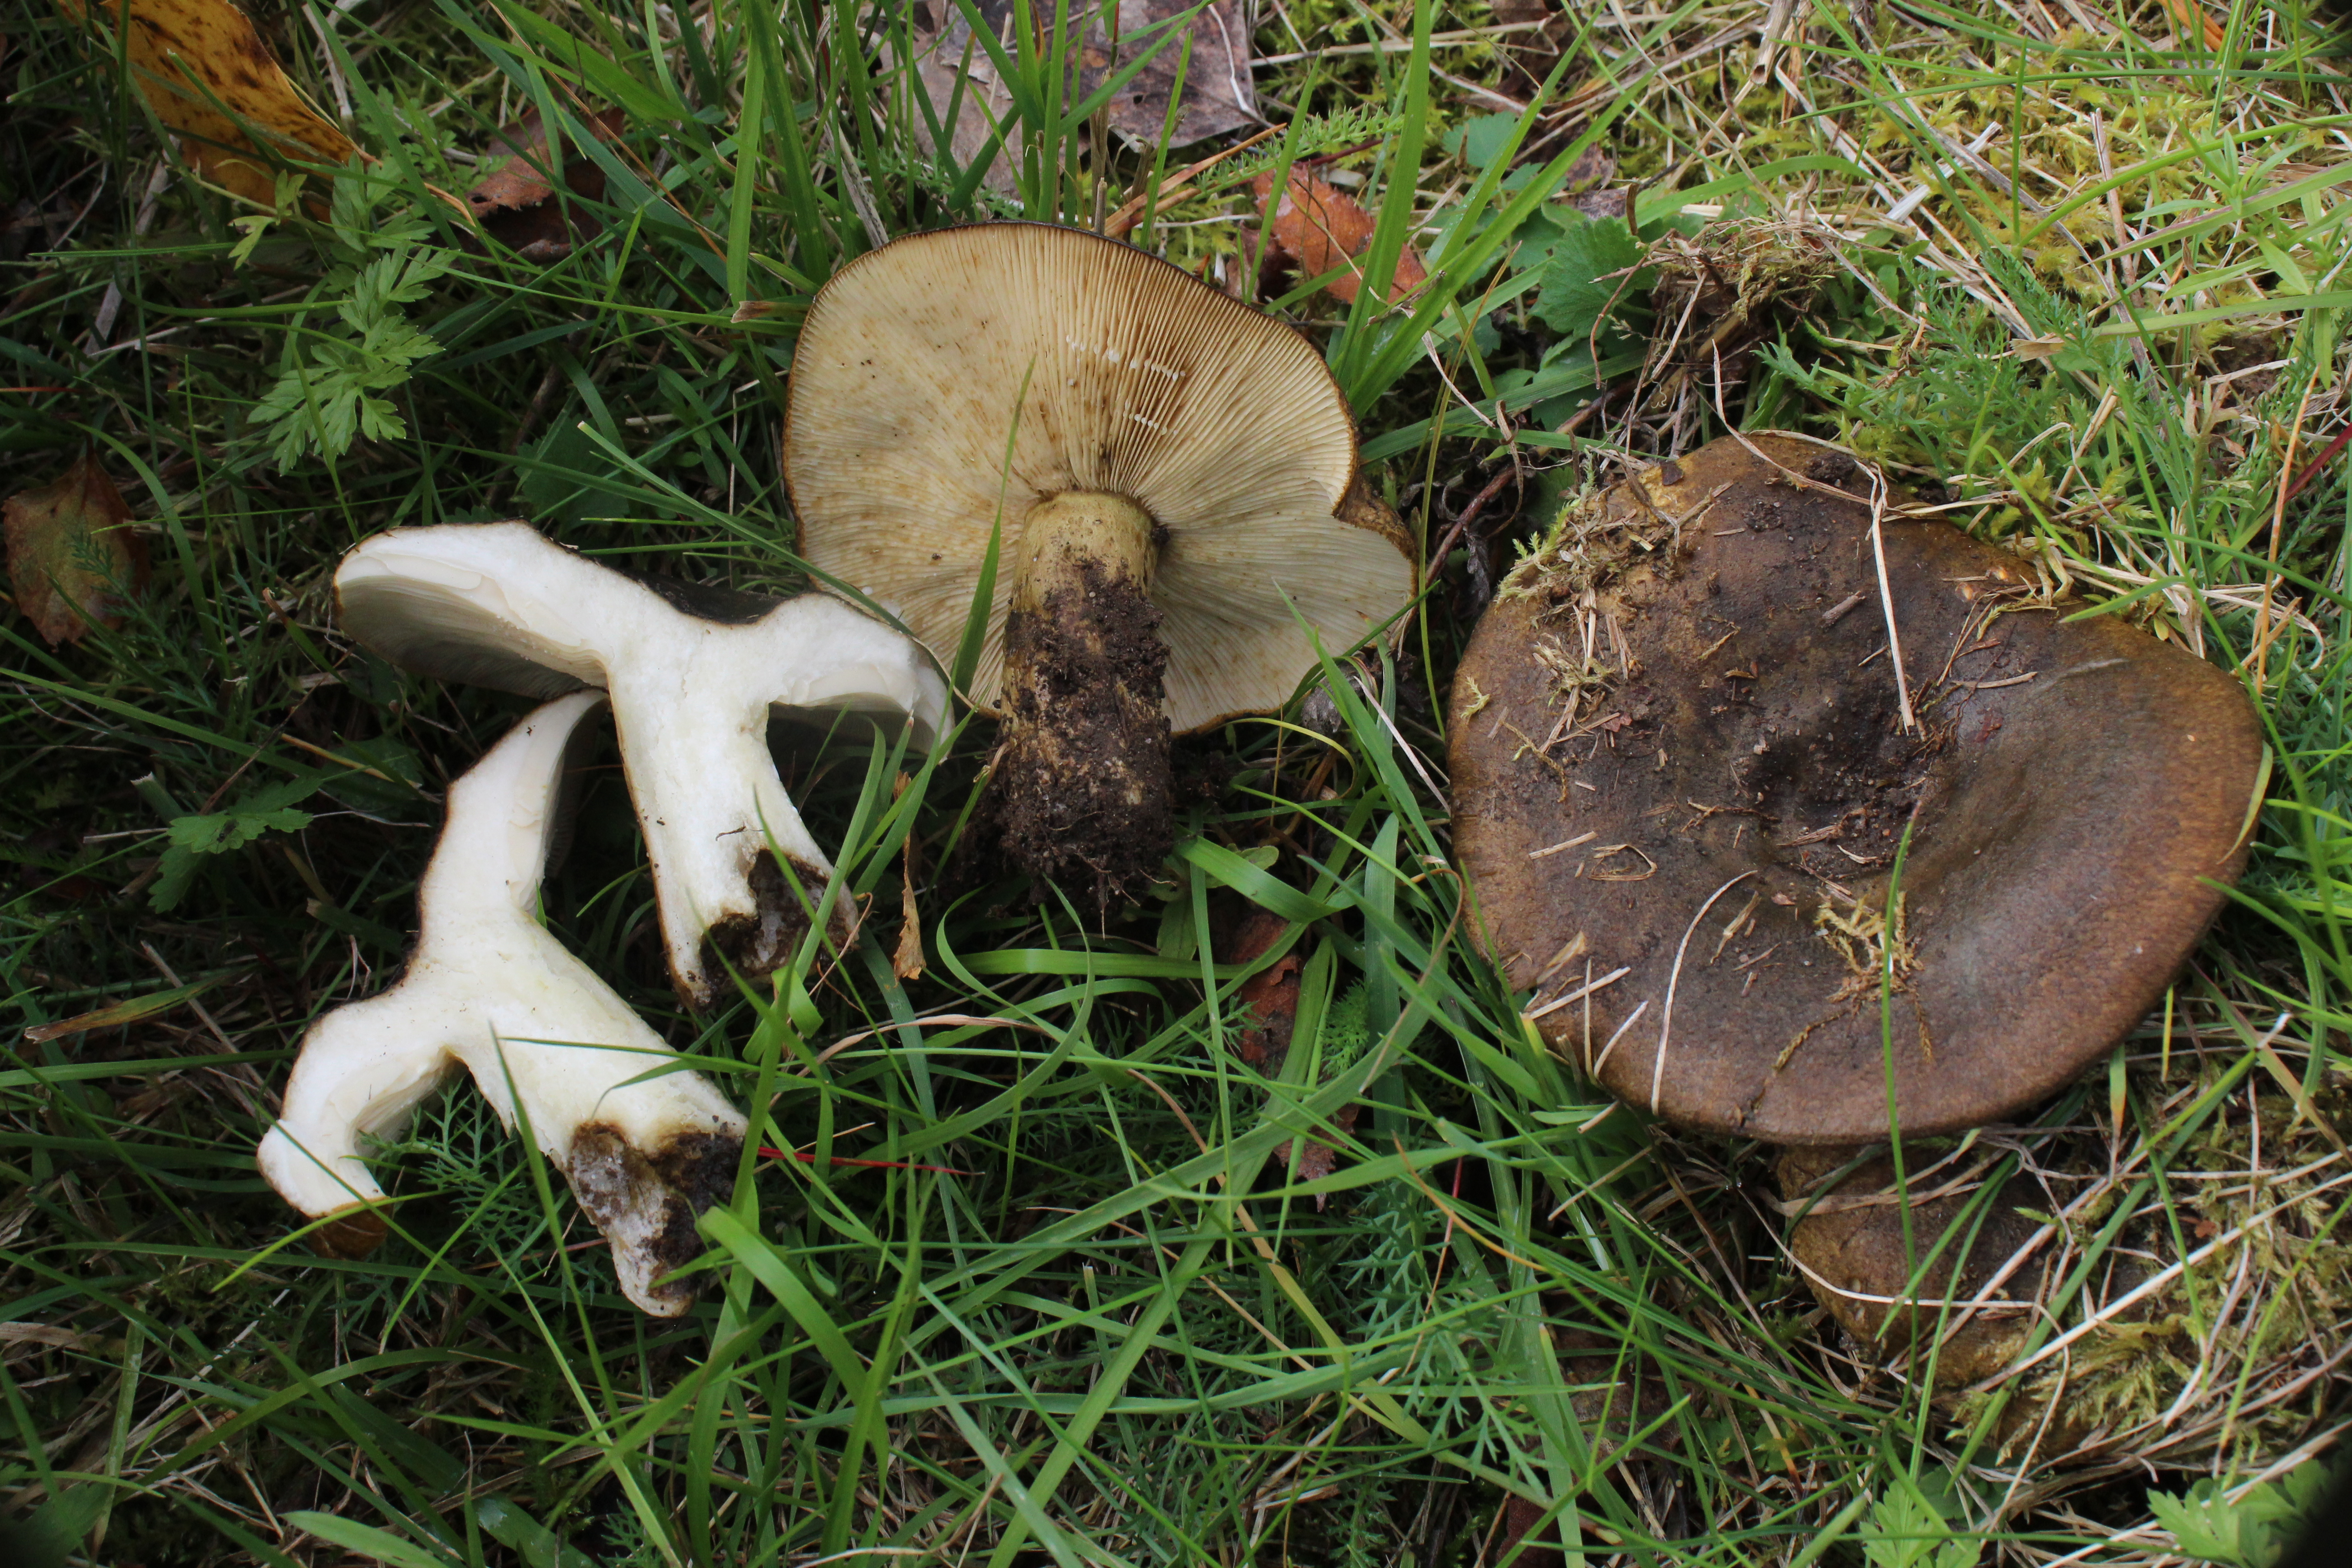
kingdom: Fungi
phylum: Basidiomycota
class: Agaricomycetes
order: Russulales
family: Russulaceae
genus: Lactarius
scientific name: Lactarius turpis
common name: Ugly milk-cap
